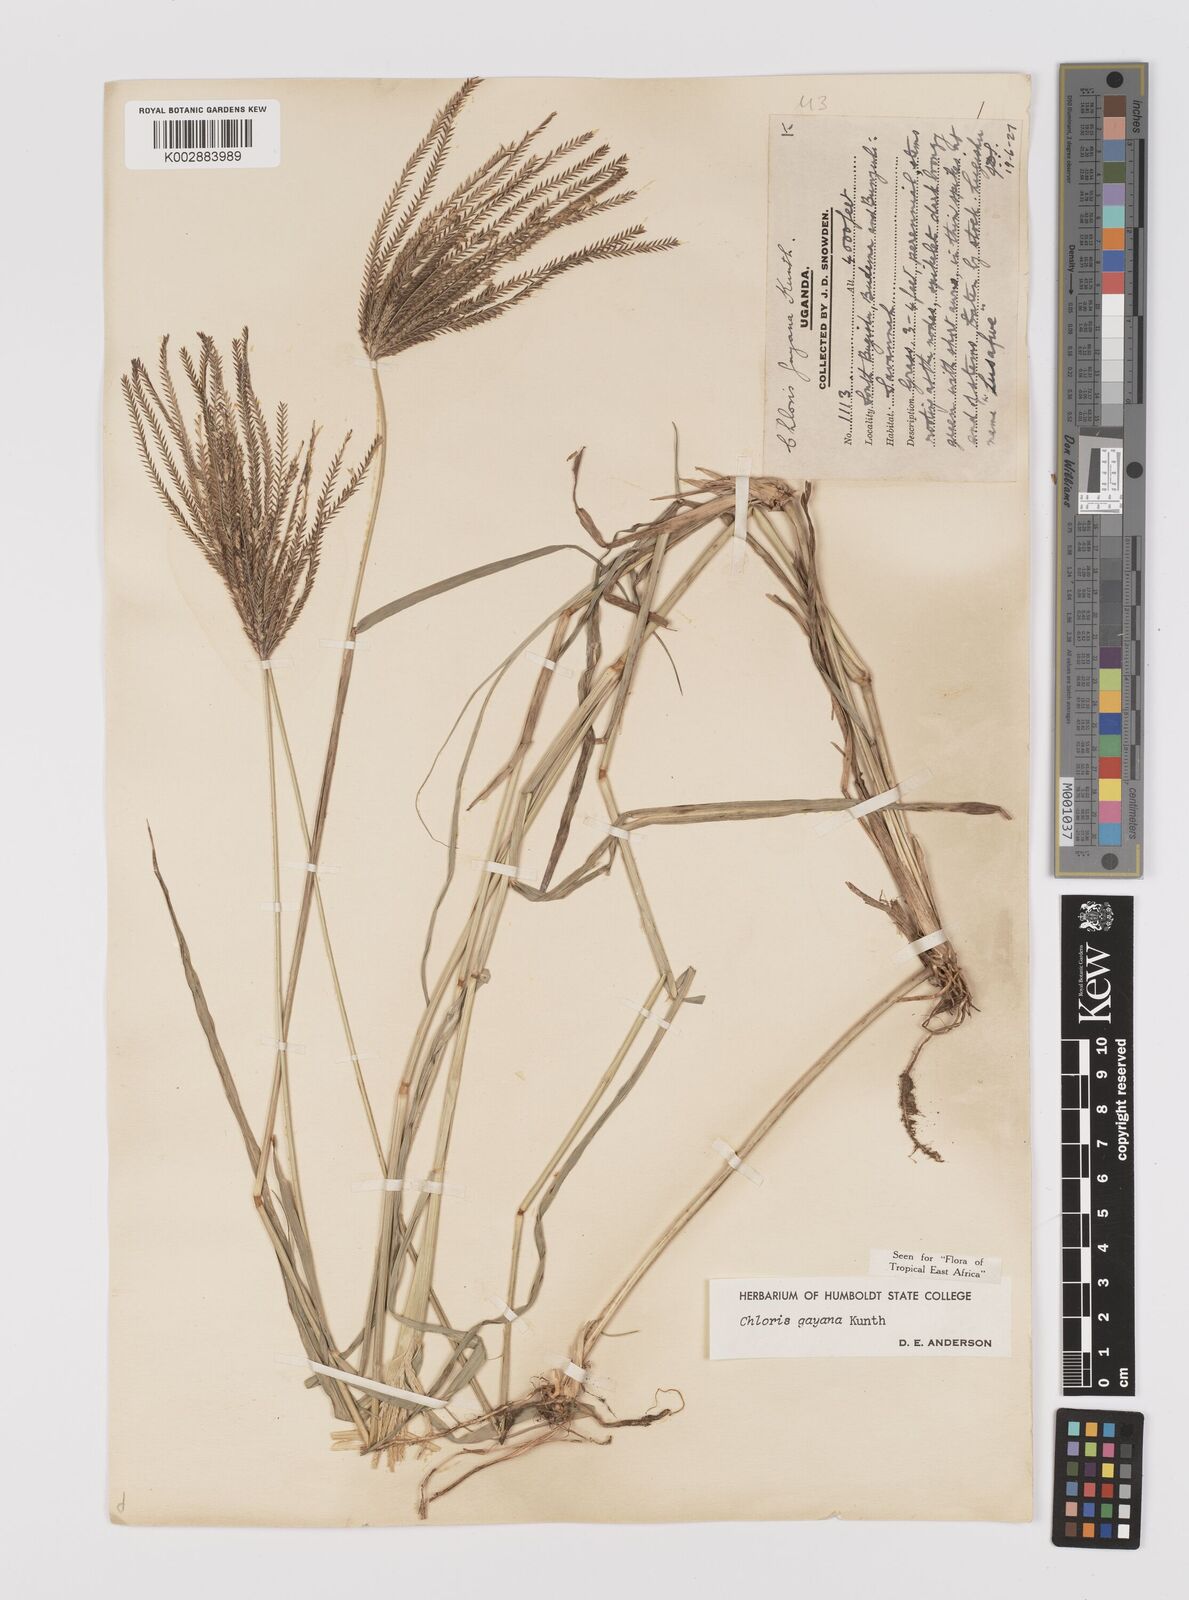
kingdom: Plantae
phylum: Tracheophyta
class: Liliopsida
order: Poales
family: Poaceae
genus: Chloris
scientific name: Chloris gayana
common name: Rhodes grass
